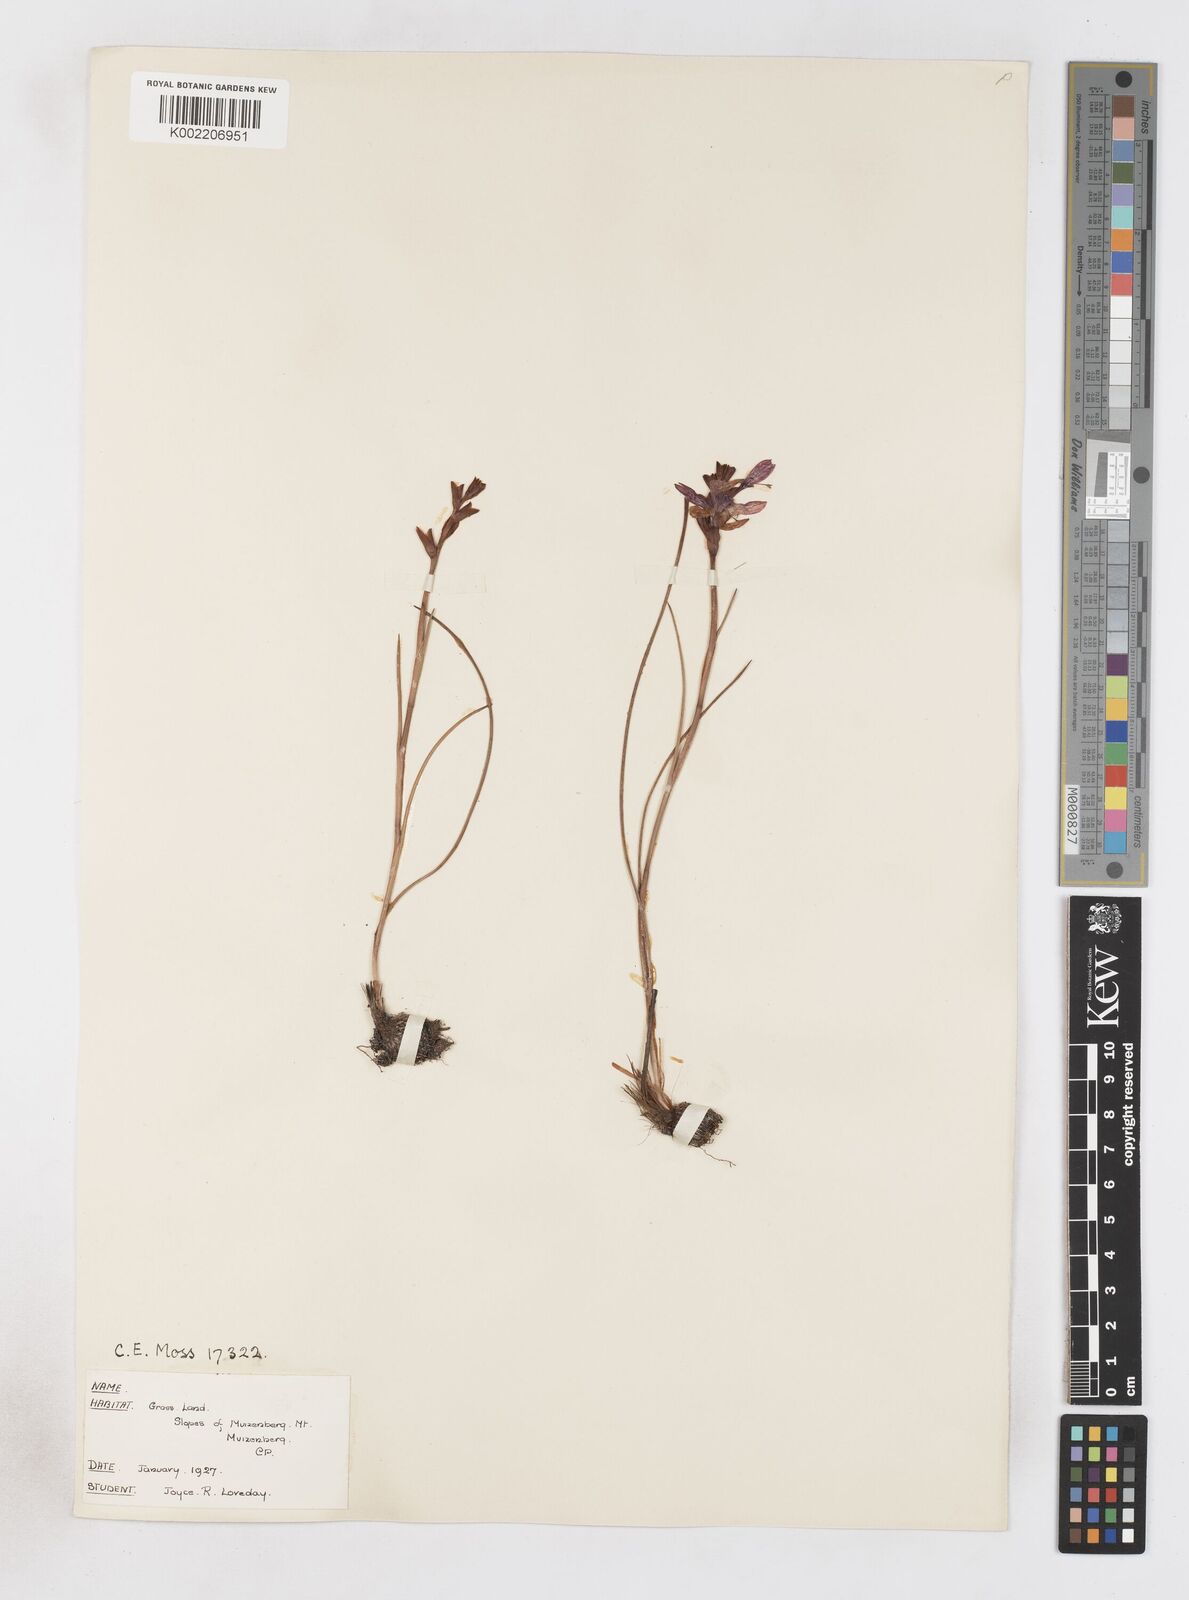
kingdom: Plantae
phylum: Tracheophyta
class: Liliopsida
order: Asparagales
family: Iridaceae
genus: Thereianthus
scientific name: Thereianthus spicatus
